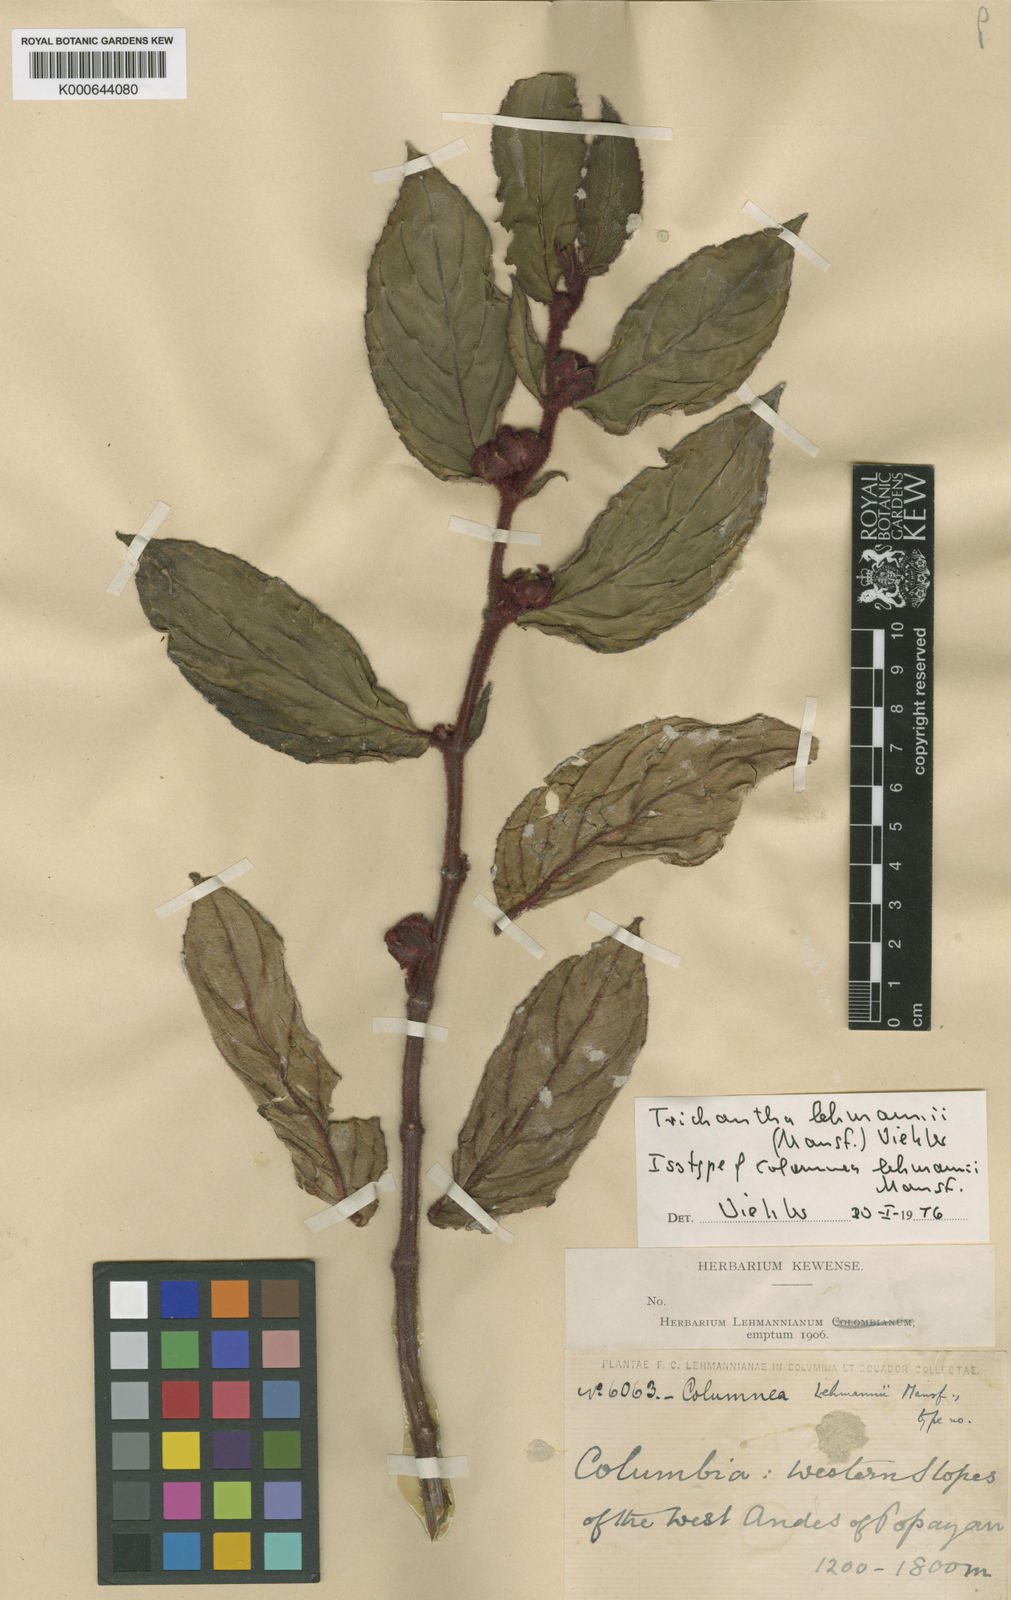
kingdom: Plantae
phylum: Tracheophyta
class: Magnoliopsida
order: Lamiales
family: Gesneriaceae
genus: Columnea
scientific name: Columnea lehmannii
